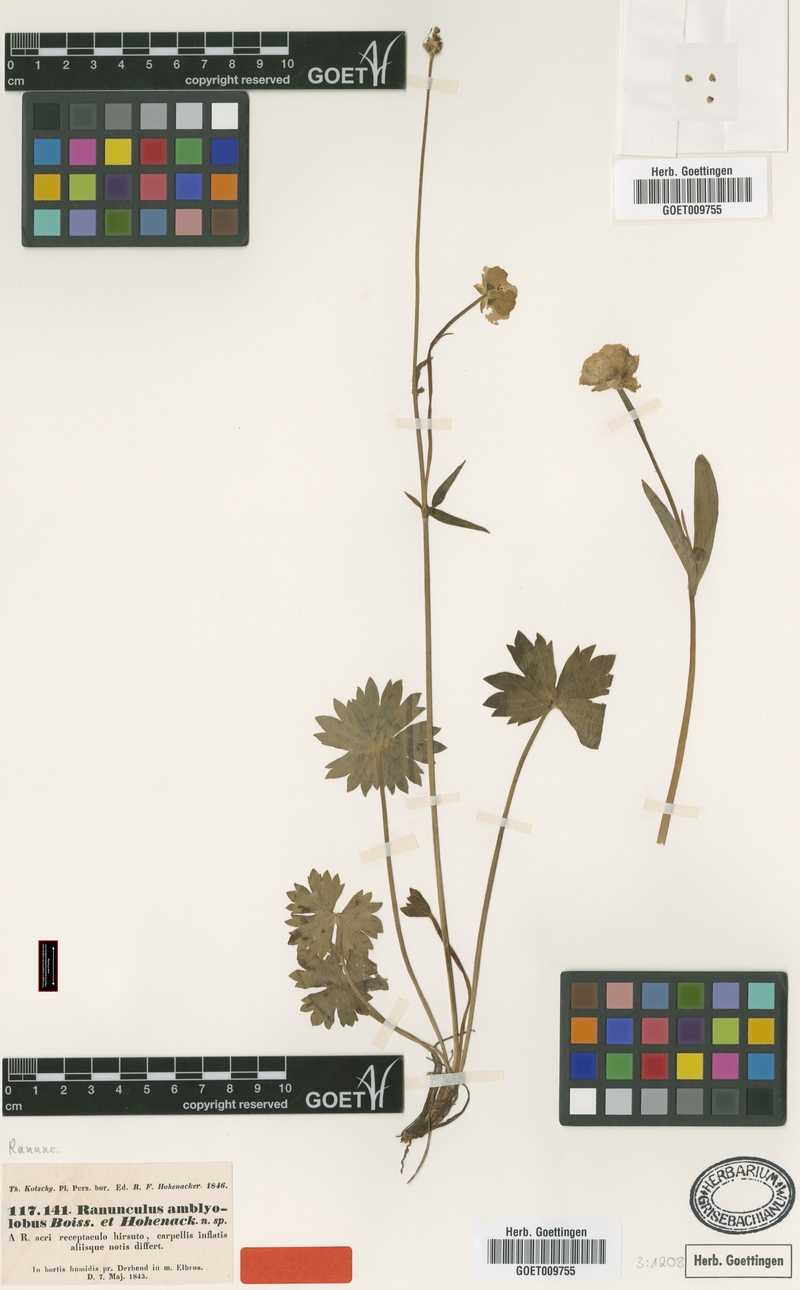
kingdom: Plantae
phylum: Tracheophyta
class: Magnoliopsida
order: Ranunculales
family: Ranunculaceae
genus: Ranunculus
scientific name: Ranunculus amblyolobus
